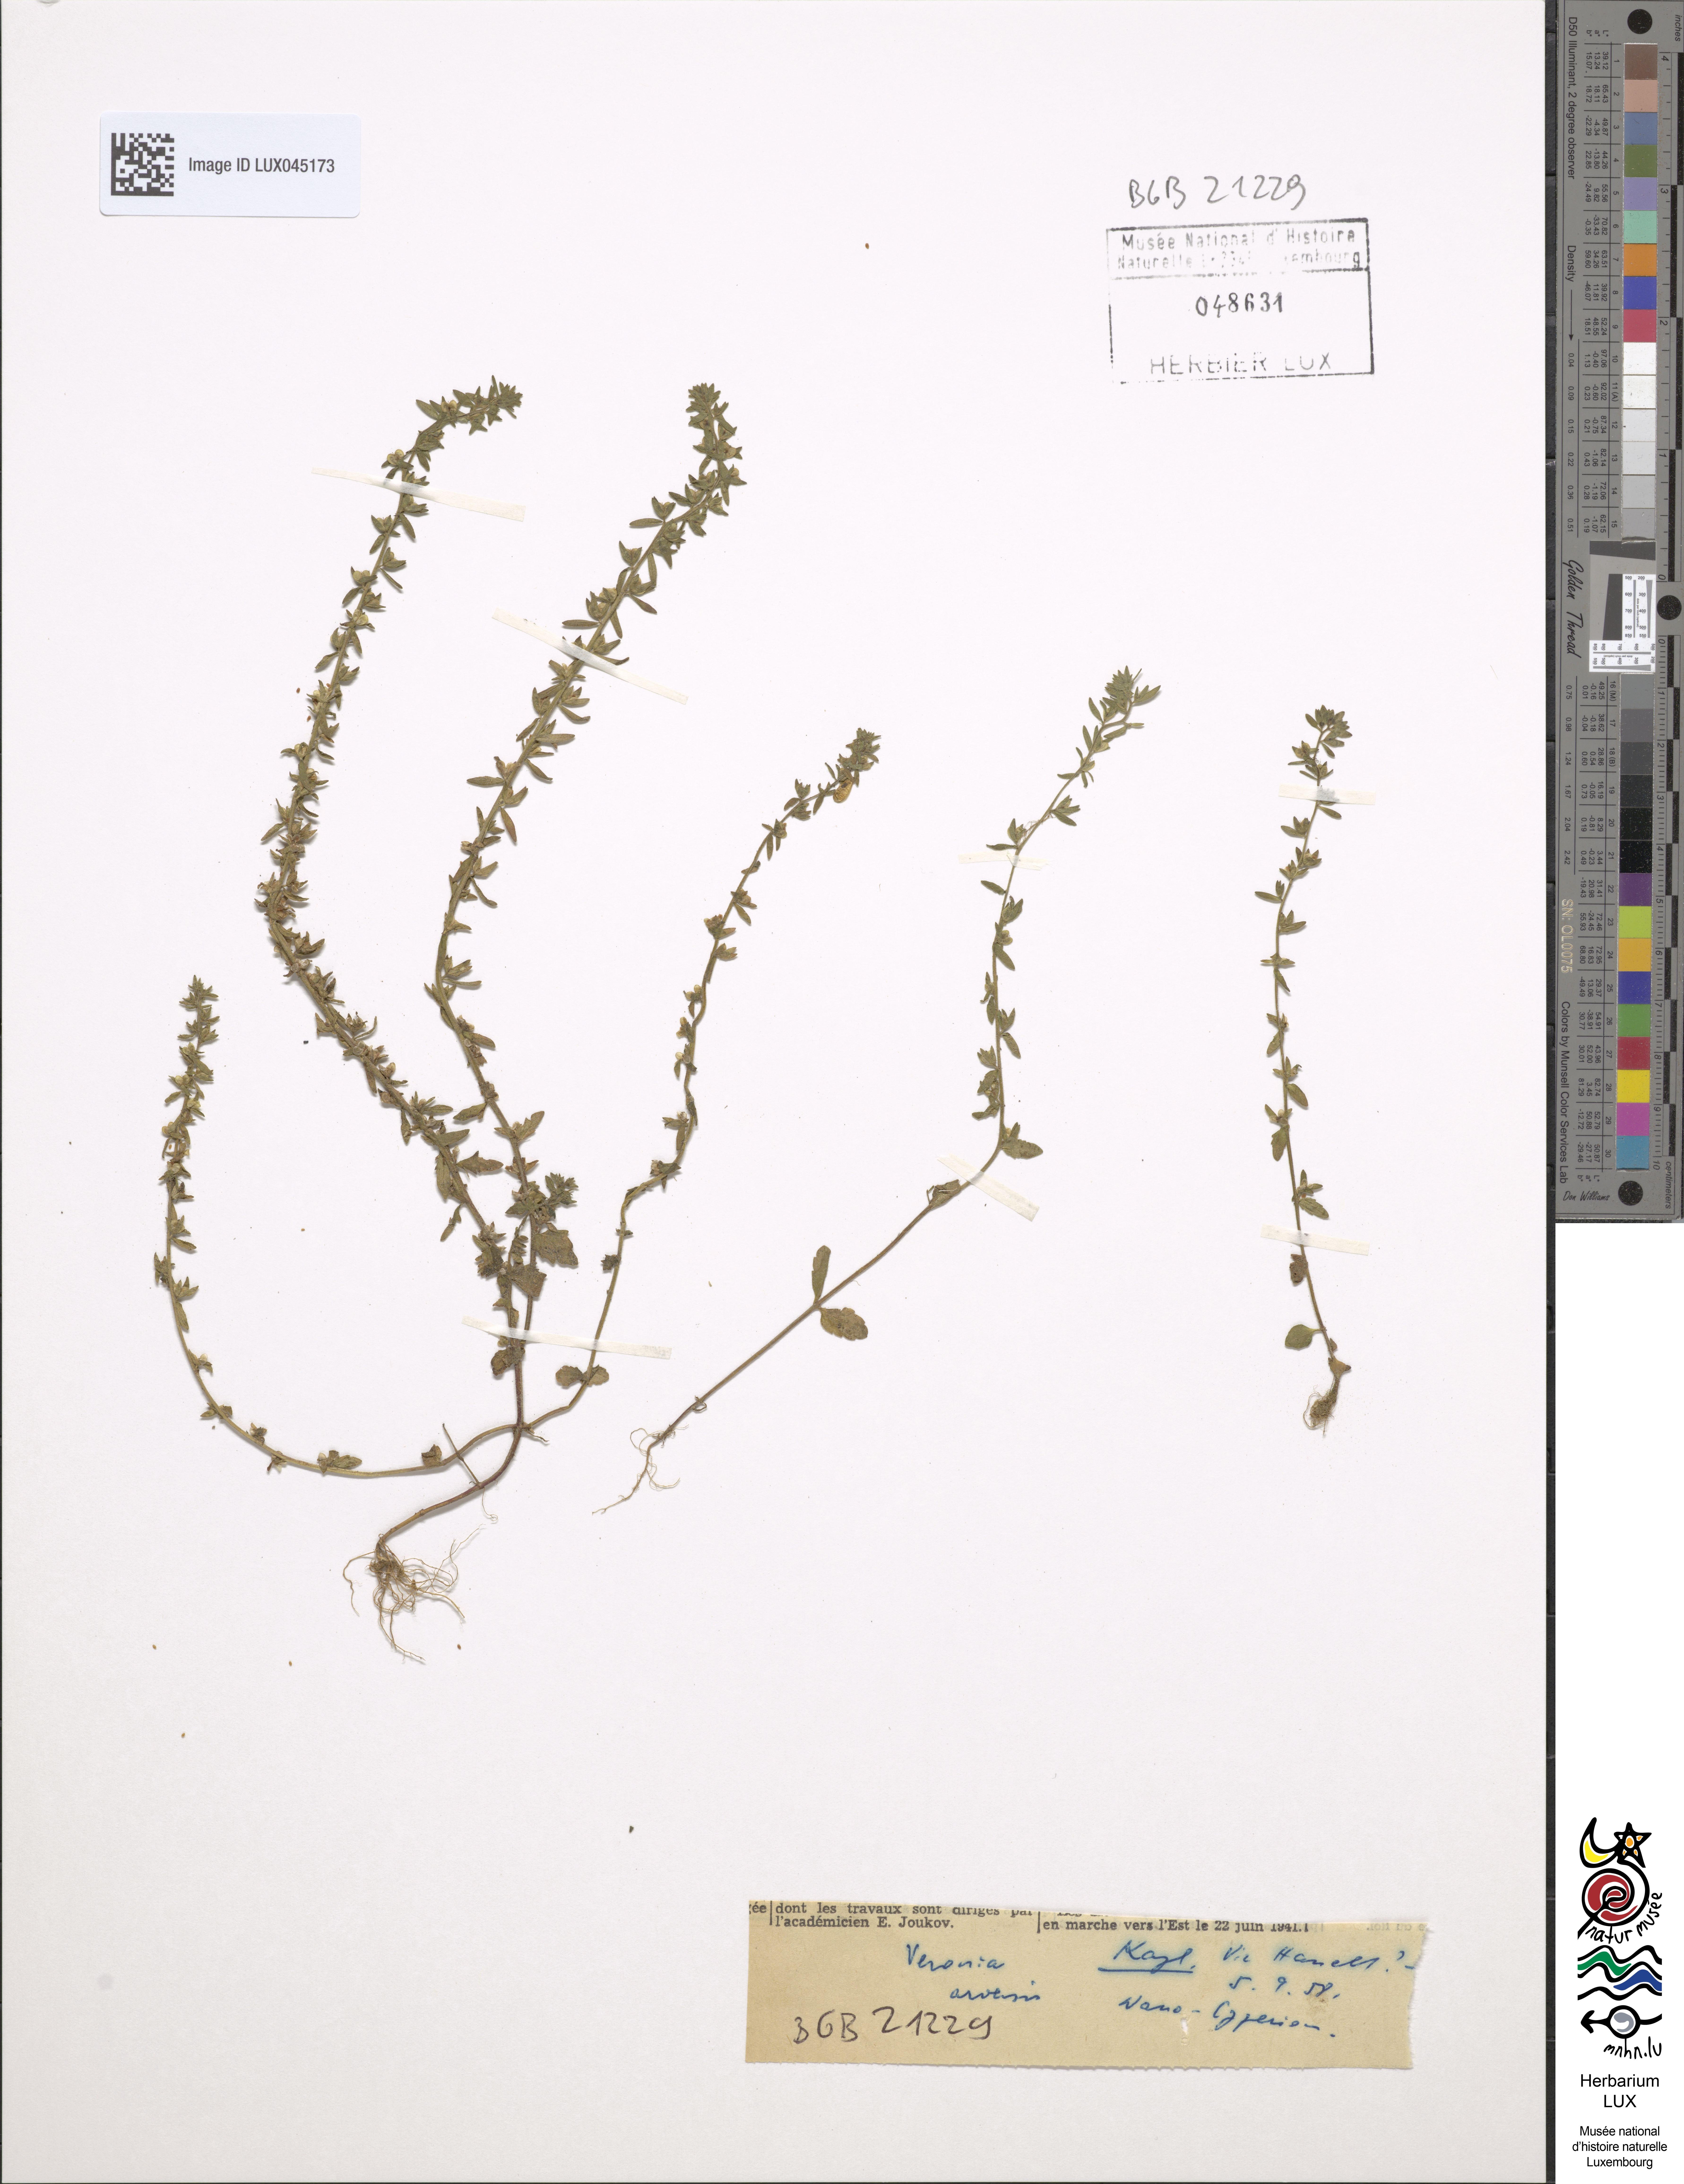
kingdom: Plantae
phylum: Tracheophyta
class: Magnoliopsida
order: Lamiales
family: Plantaginaceae
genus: Veronica
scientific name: Veronica arvensis
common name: Corn speedwell
